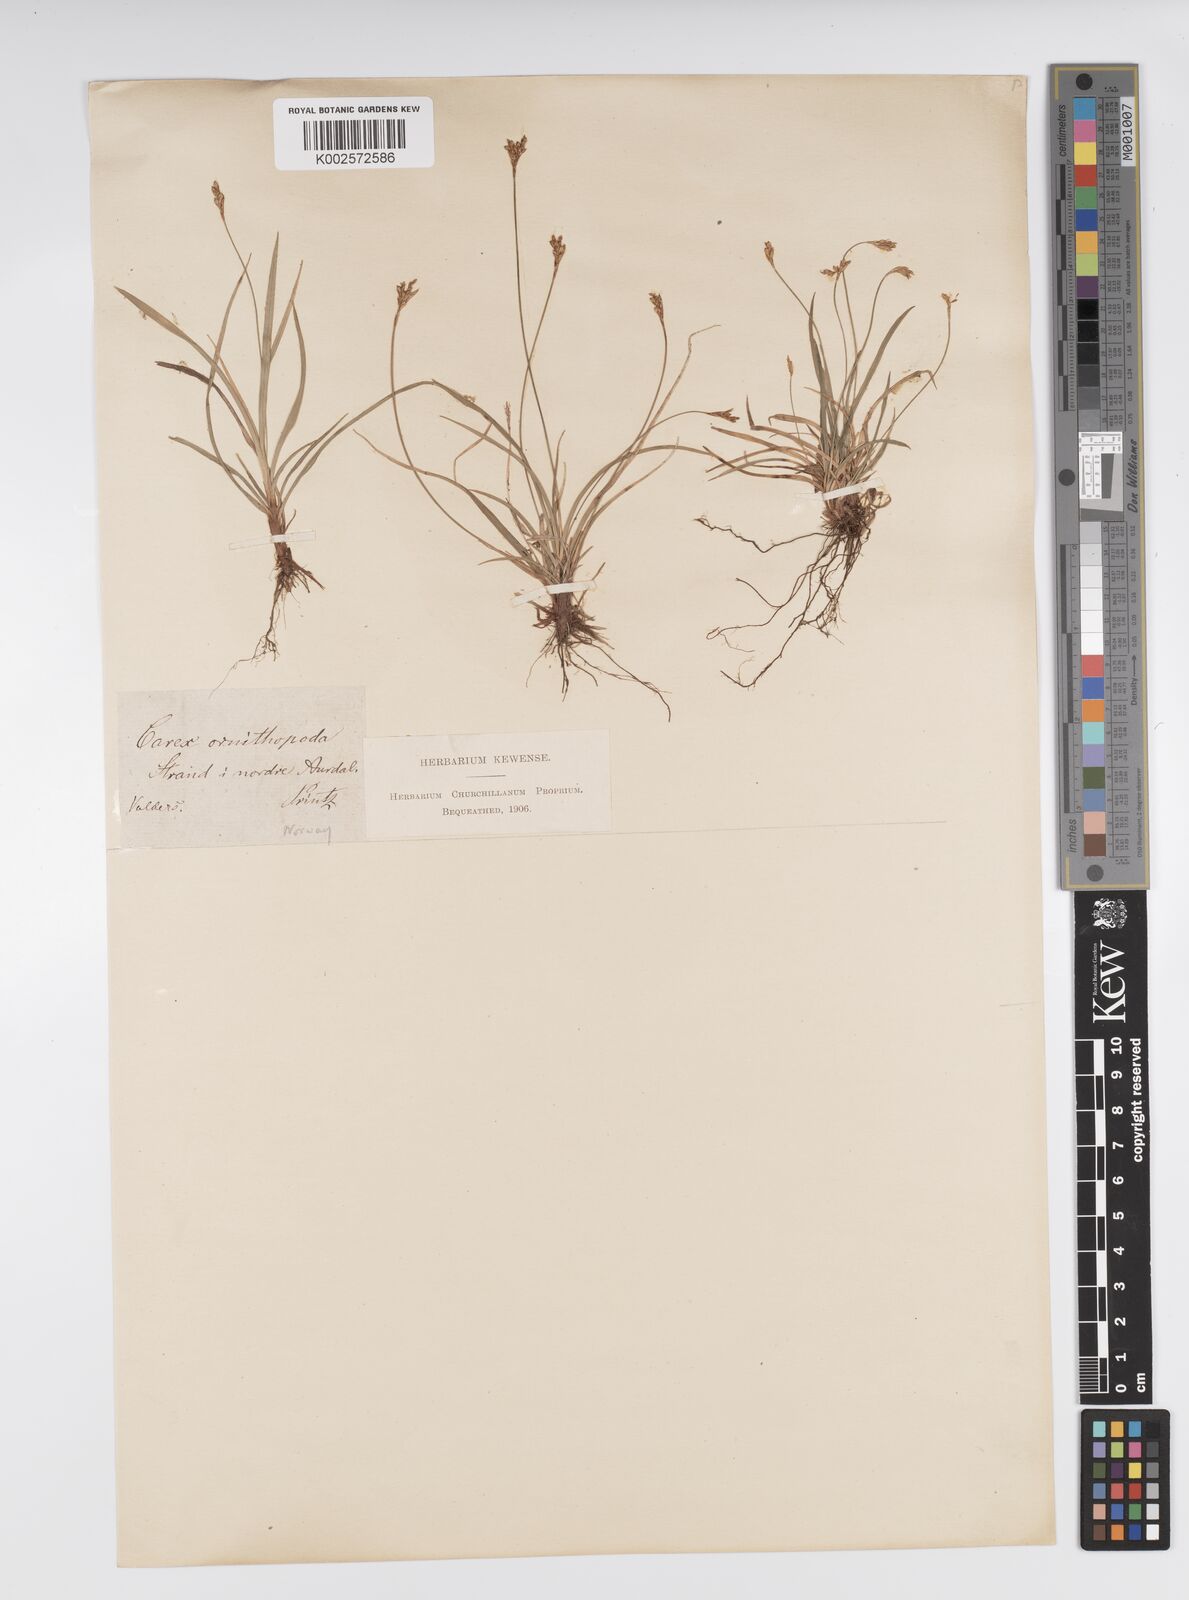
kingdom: Plantae
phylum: Tracheophyta
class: Liliopsida
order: Poales
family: Cyperaceae
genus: Carex
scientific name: Carex ornithopoda
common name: Bird's-foot sedge
